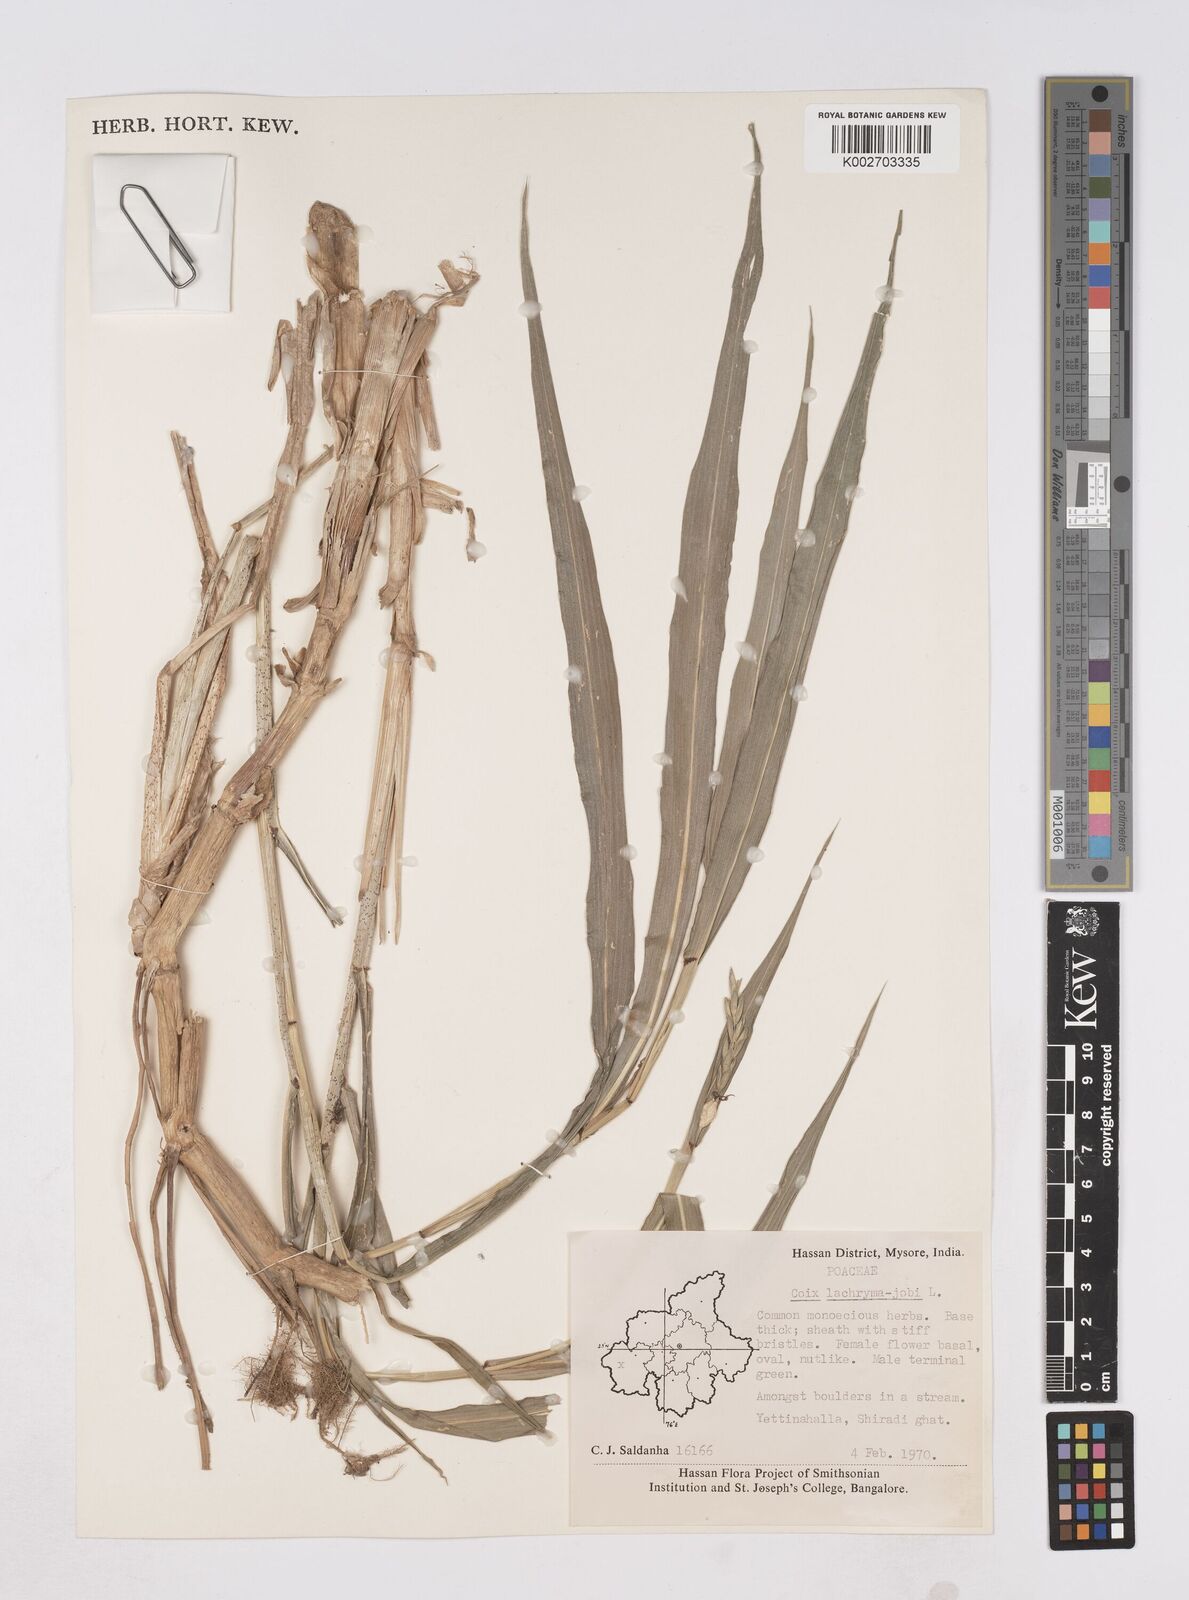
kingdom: Plantae
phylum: Tracheophyta
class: Liliopsida
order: Poales
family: Poaceae
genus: Coix
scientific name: Coix lacryma-jobi
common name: Job's tears
